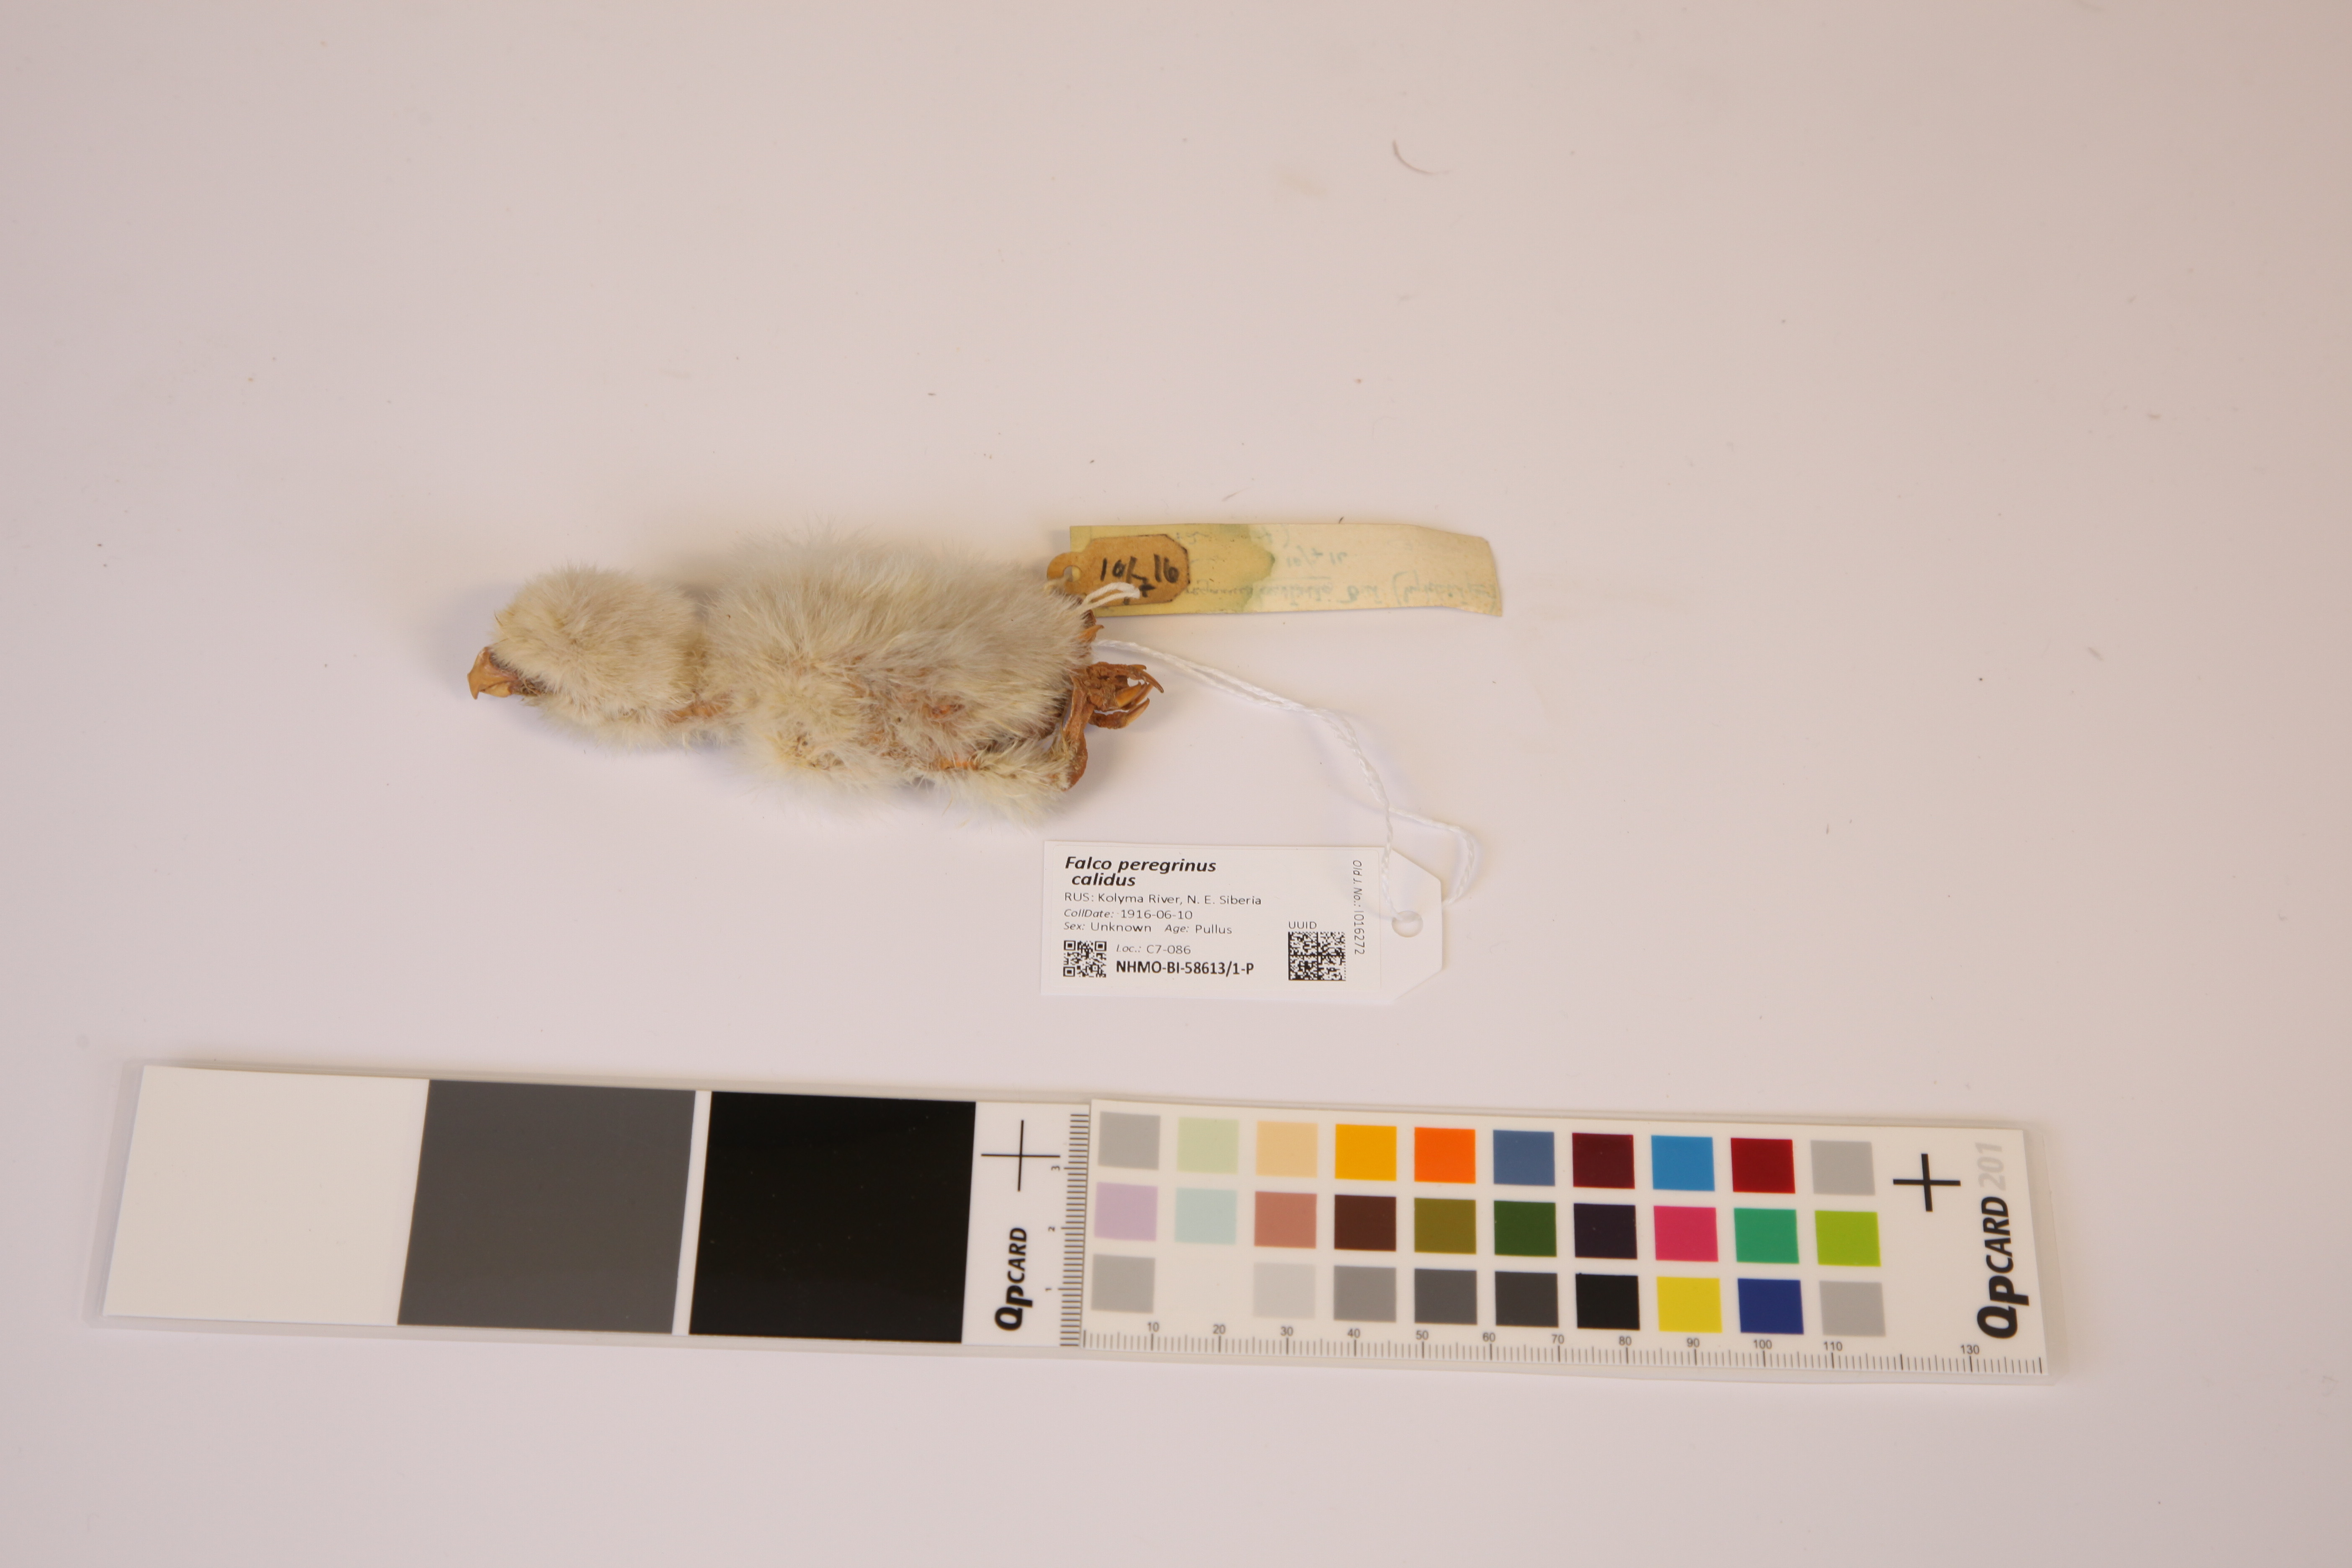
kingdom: Animalia
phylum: Chordata
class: Aves
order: Falconiformes
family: Falconidae
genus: Falco
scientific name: Falco peregrinus
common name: Peregrine falcon
